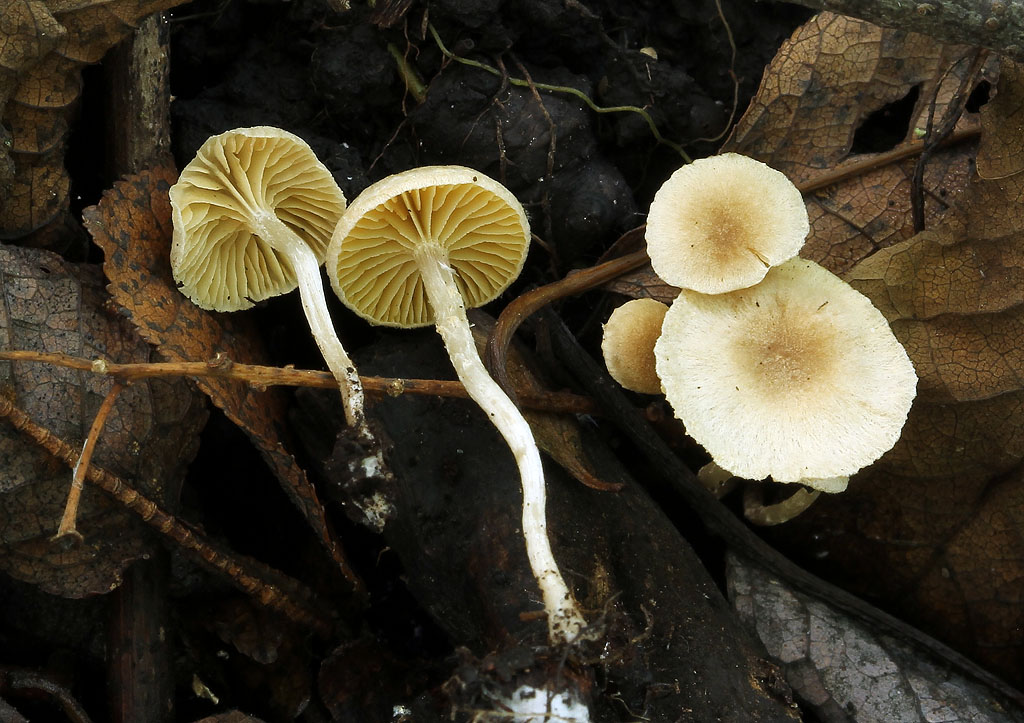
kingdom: Fungi
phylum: Basidiomycota
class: Agaricomycetes
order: Agaricales
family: Tubariaceae
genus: Tubaria
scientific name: Tubaria dispersa
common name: tjørne-fnughat
